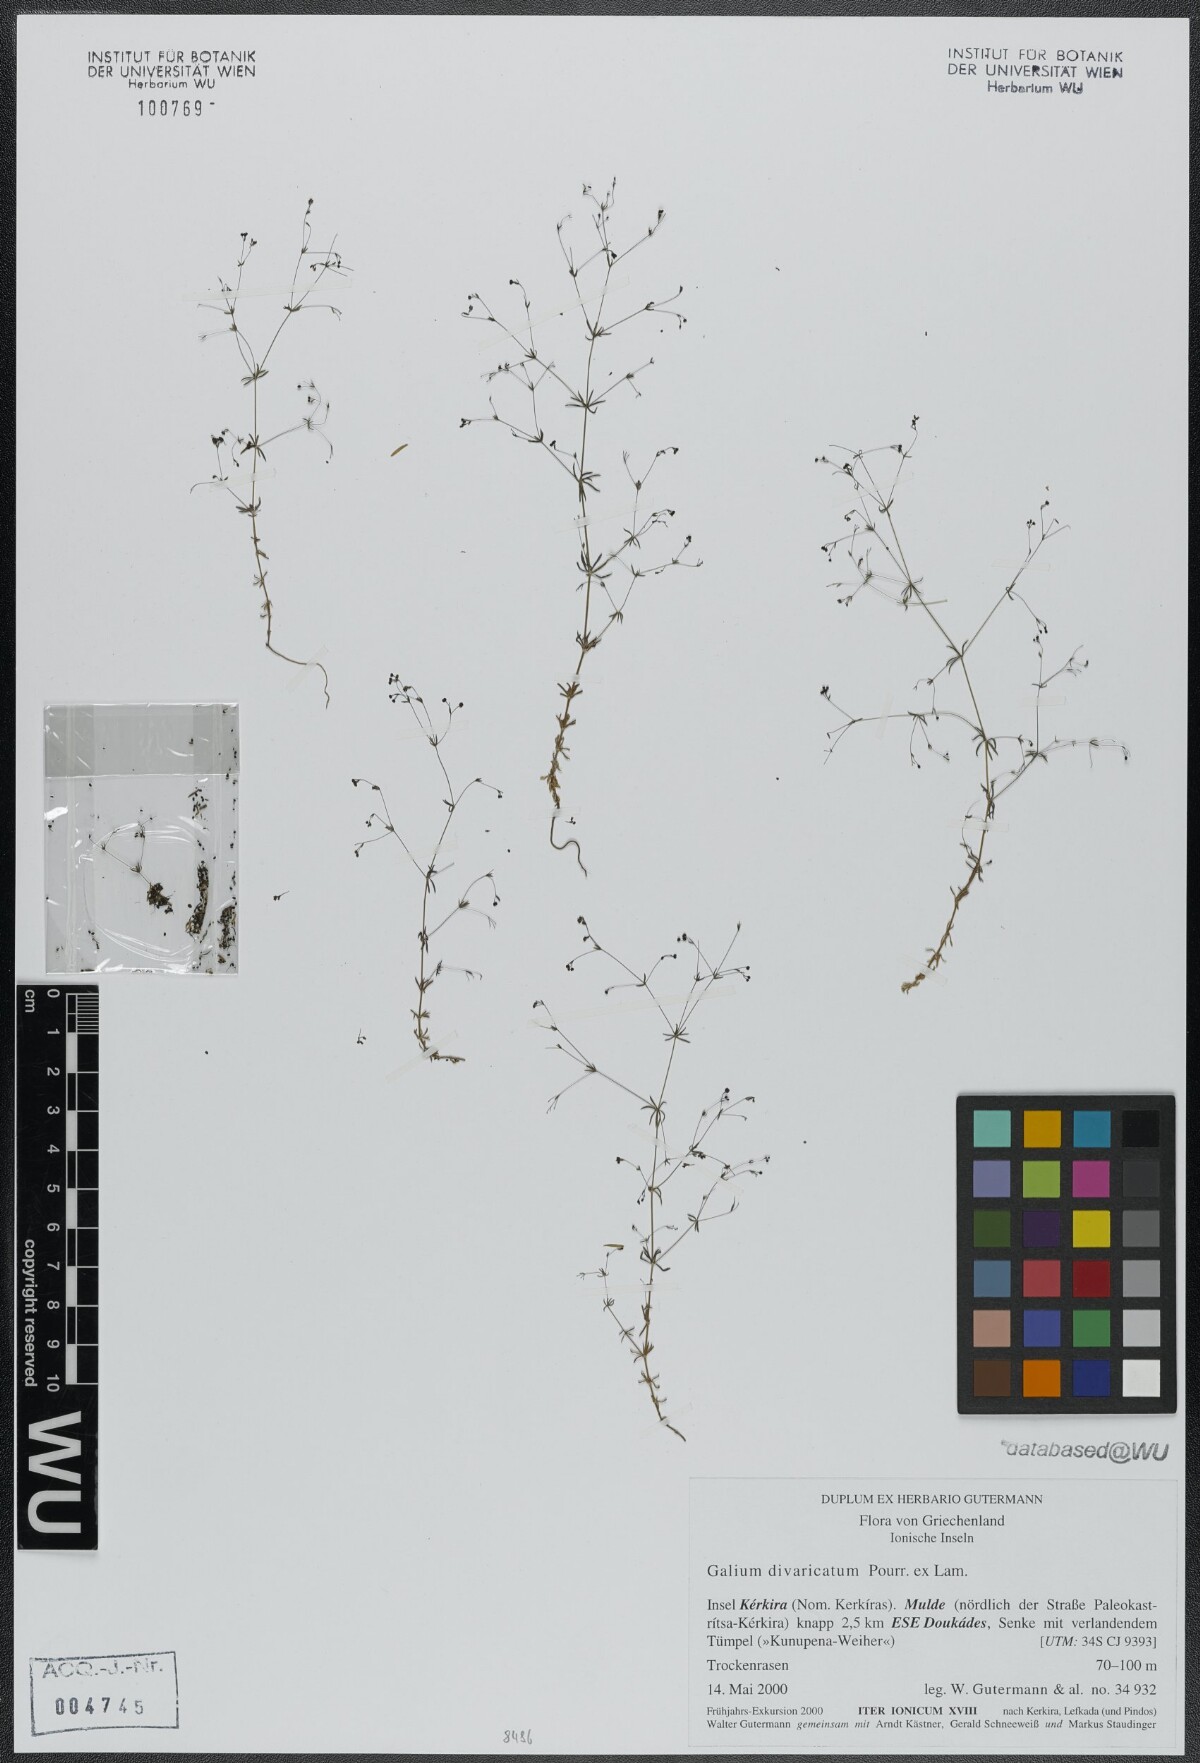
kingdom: Plantae
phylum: Tracheophyta
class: Magnoliopsida
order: Gentianales
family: Rubiaceae
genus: Galium
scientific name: Galium divaricatum
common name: Lamarck's bedstraw
